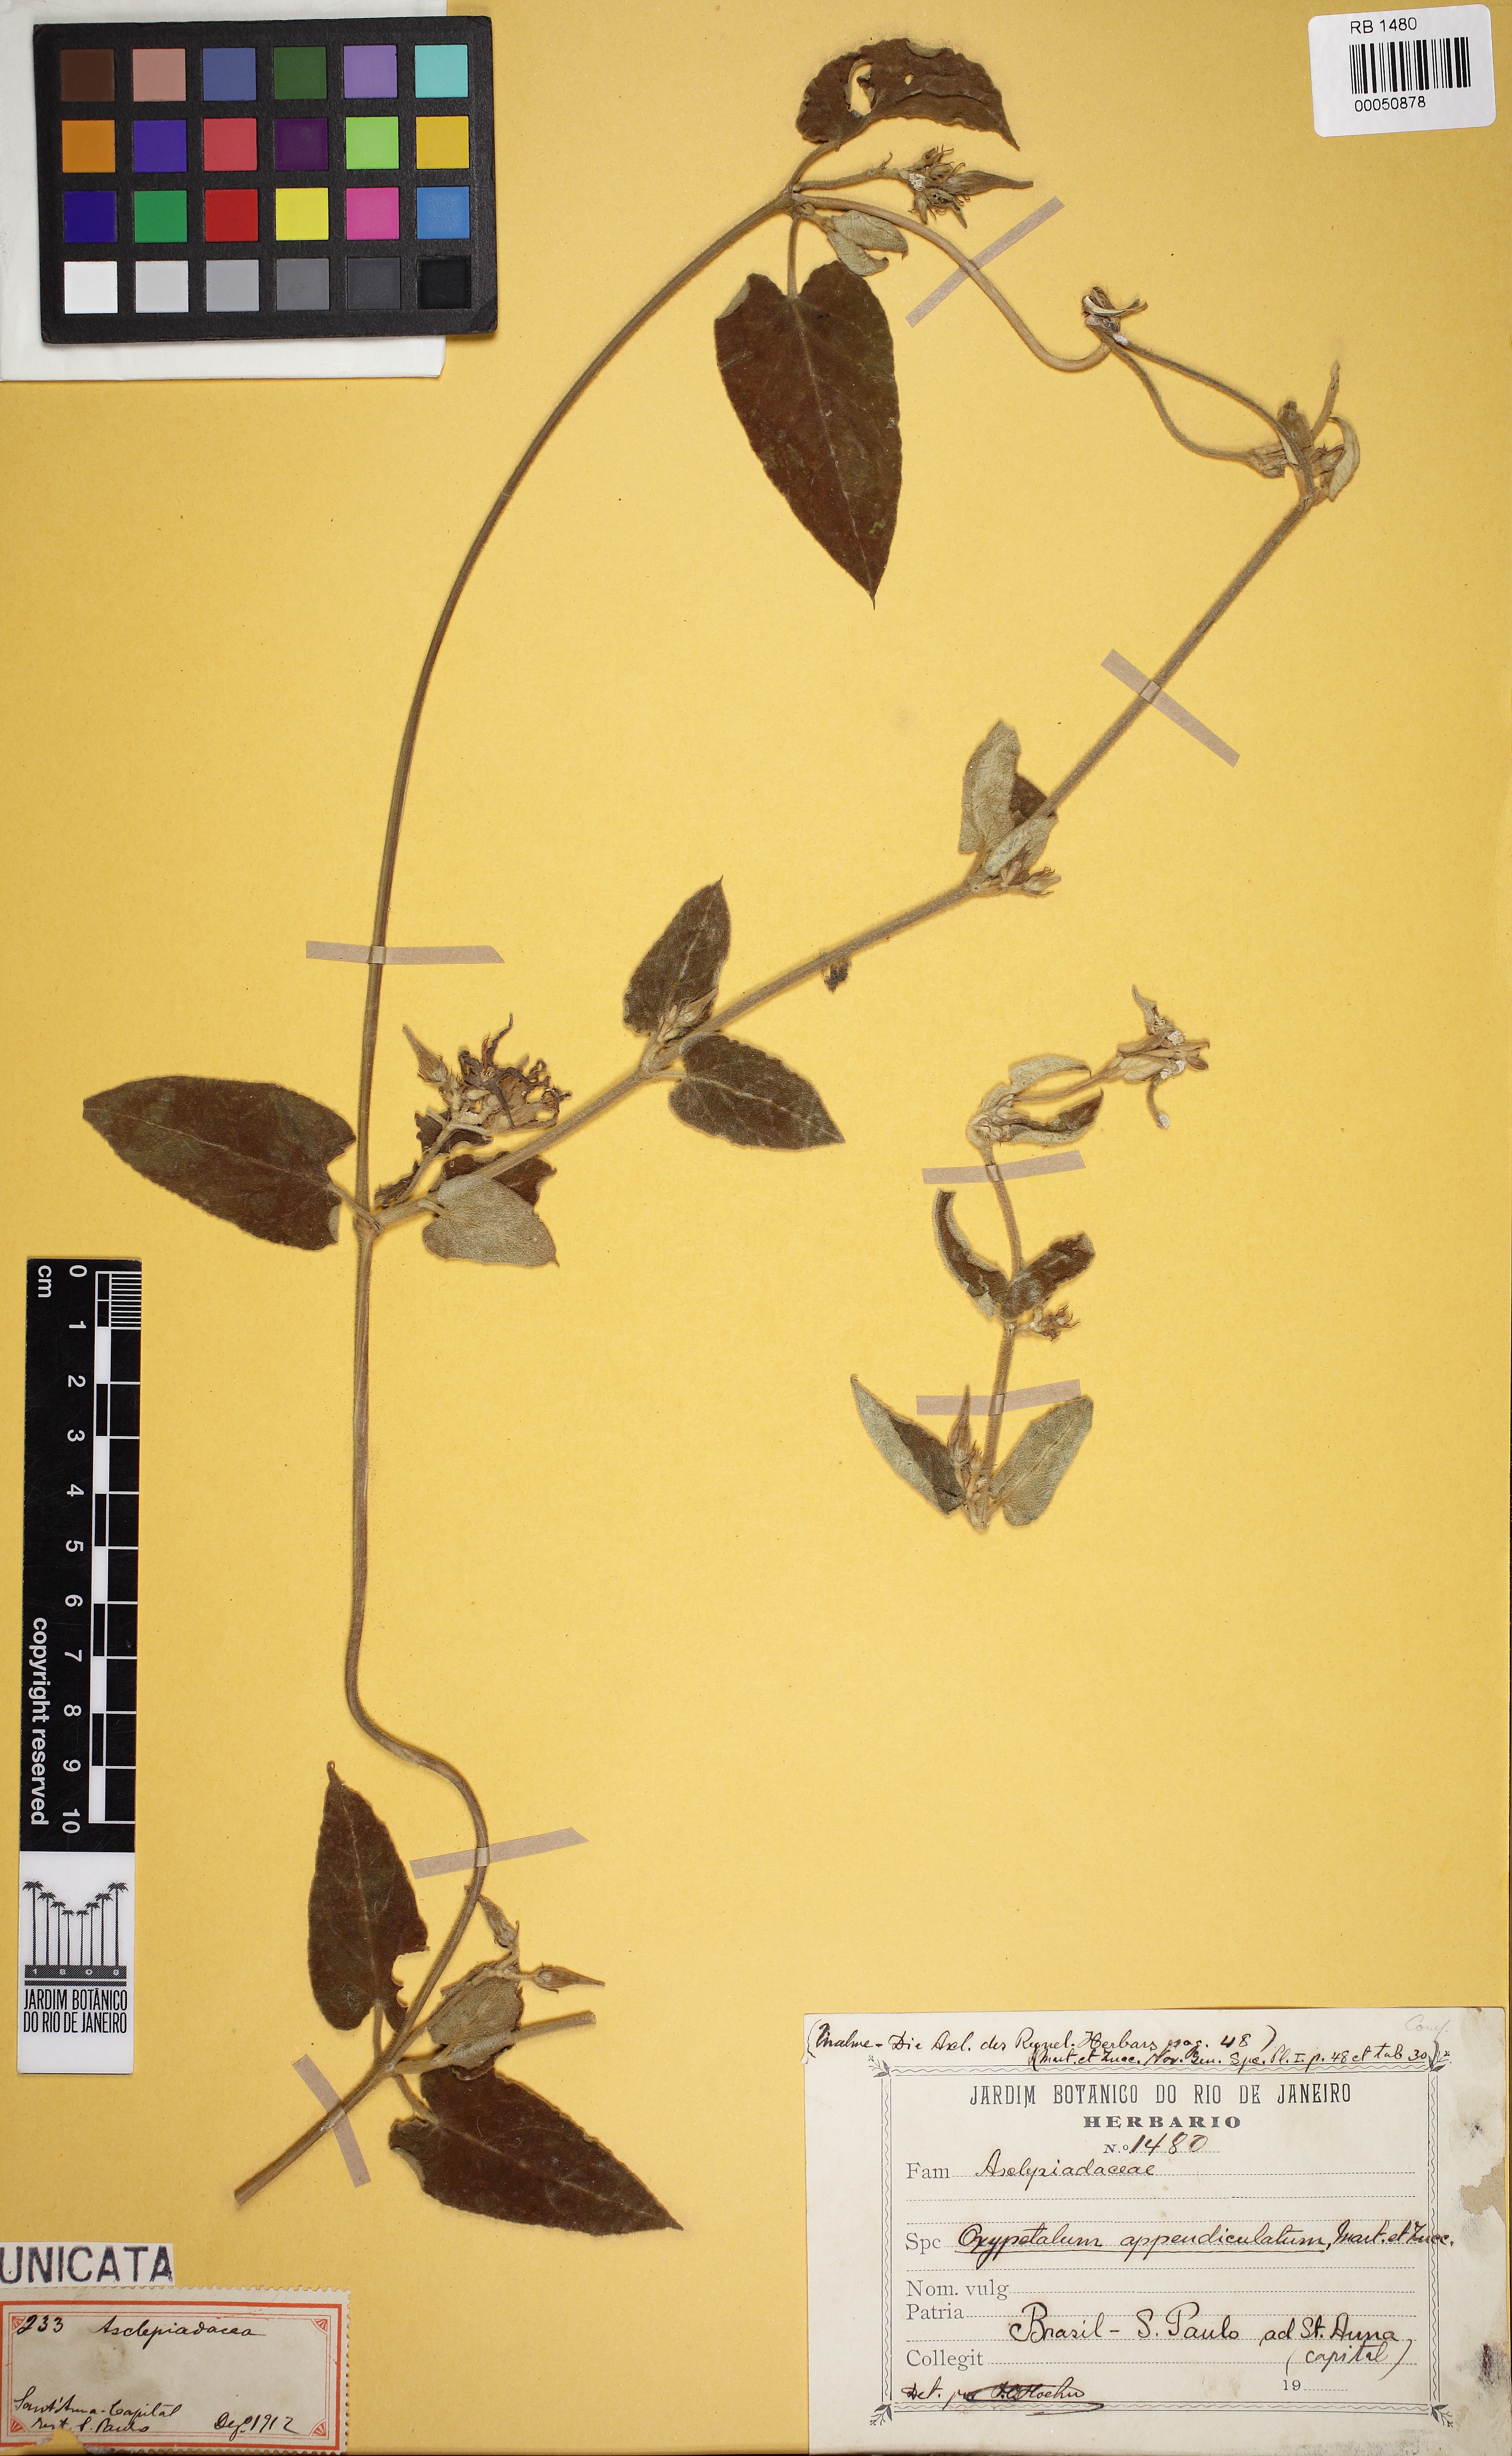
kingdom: Plantae
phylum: Tracheophyta
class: Magnoliopsida
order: Gentianales
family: Apocynaceae
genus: Oxypetalum
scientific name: Oxypetalum appendiculatum
